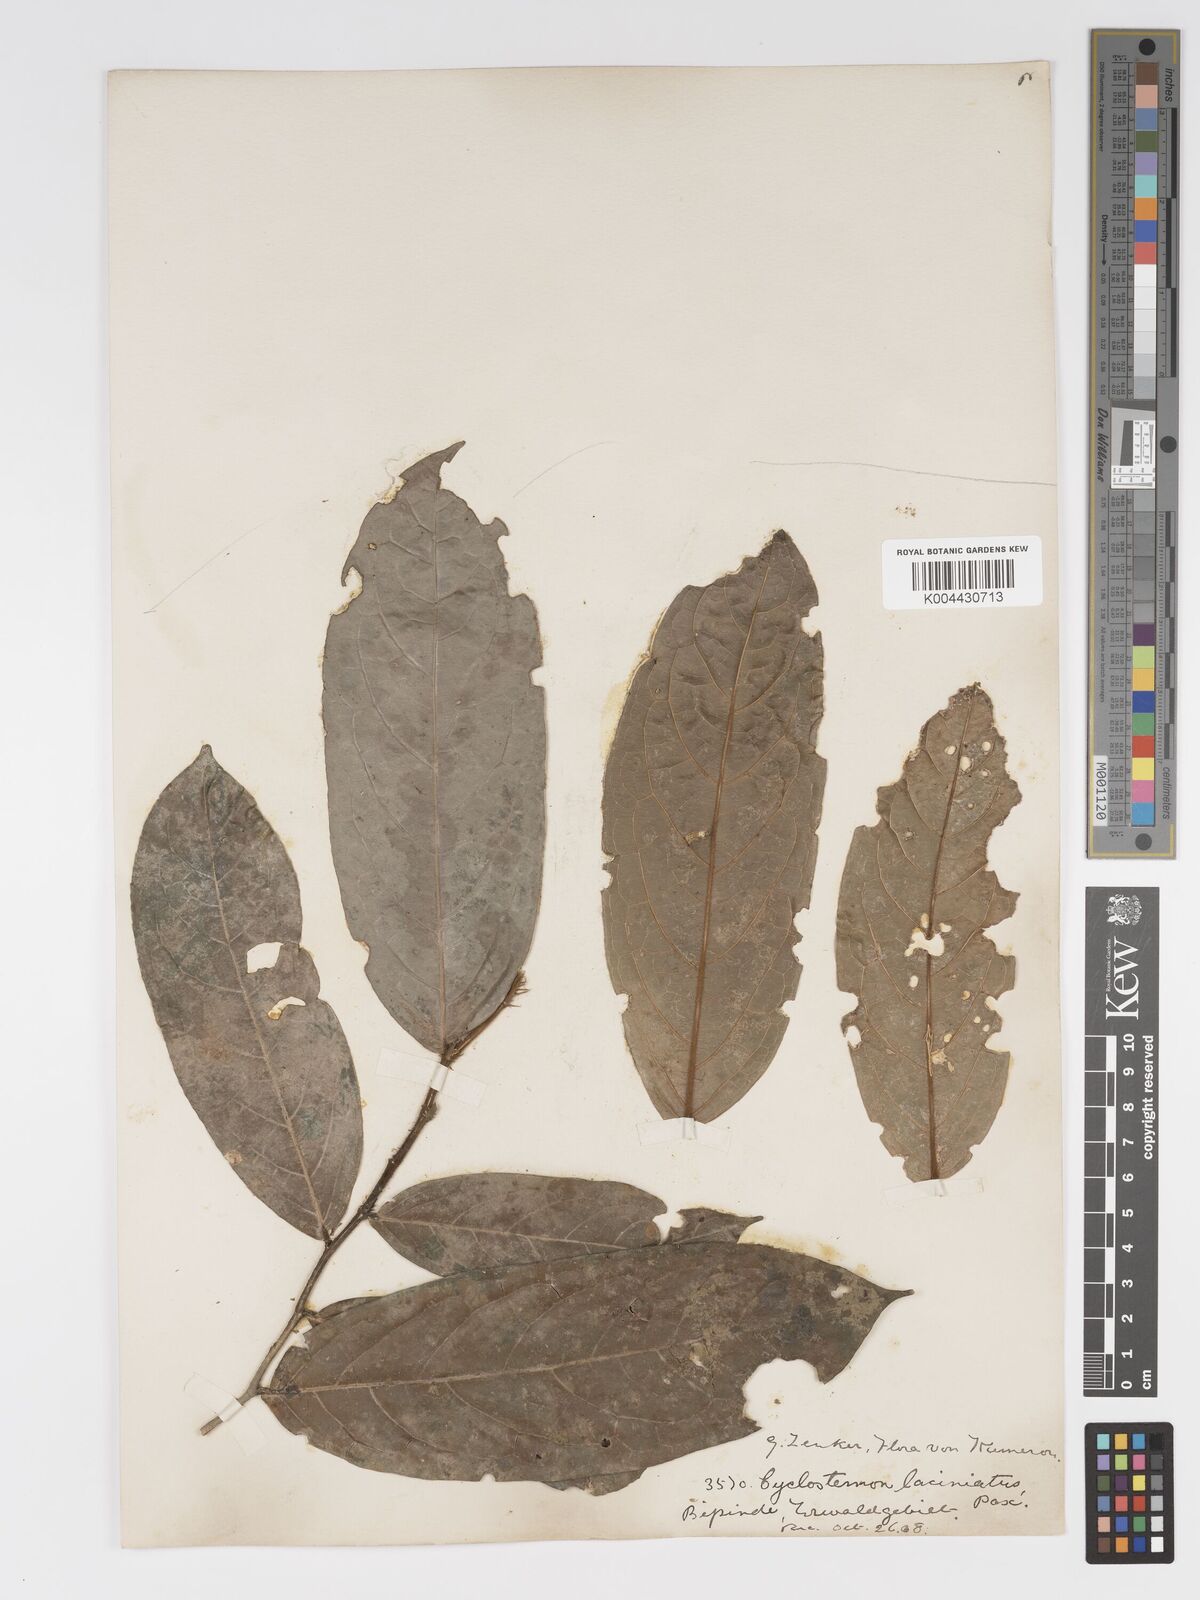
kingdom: Plantae
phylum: Tracheophyta
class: Magnoliopsida
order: Malpighiales
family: Putranjivaceae
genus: Drypetes
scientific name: Drypetes laciniata
